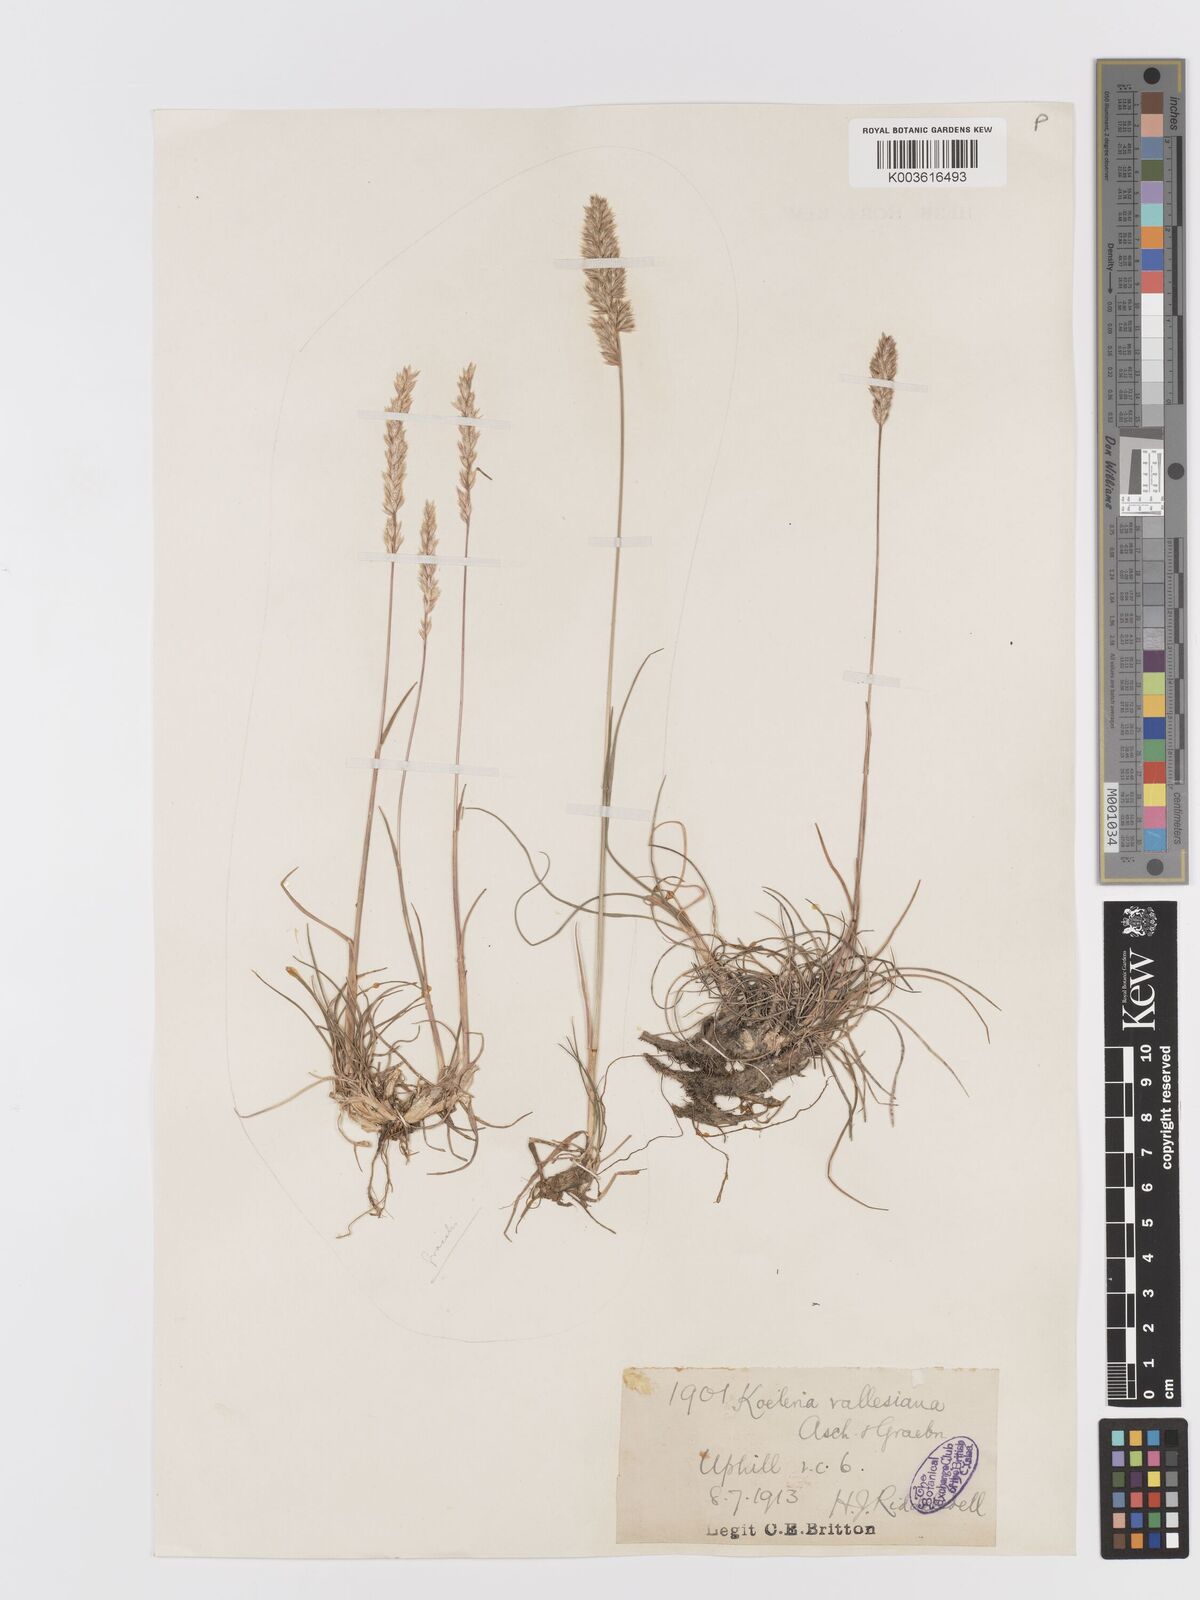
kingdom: Plantae
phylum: Tracheophyta
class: Liliopsida
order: Poales
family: Poaceae
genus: Koeleria
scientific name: Koeleria vallesiana
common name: Somerset hair-grass
